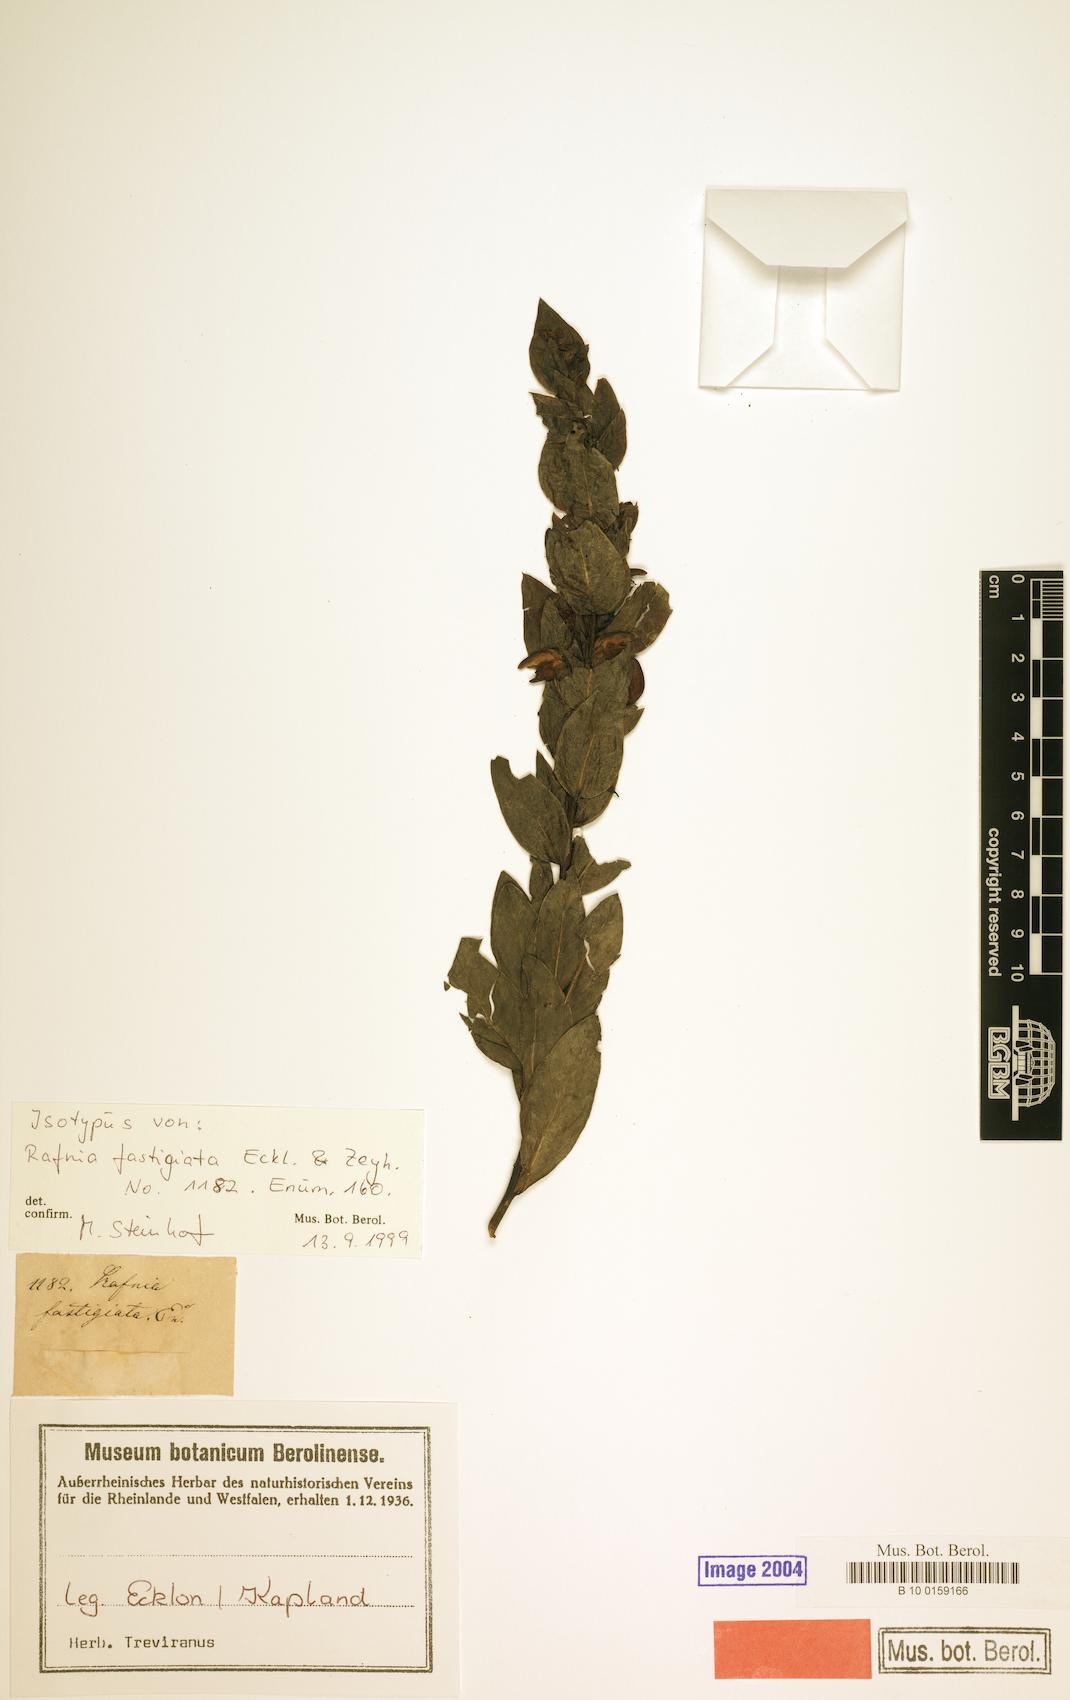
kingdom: Plantae
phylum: Tracheophyta
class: Magnoliopsida
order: Fabales
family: Fabaceae
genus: Rafnia
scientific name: Rafnia triflora
